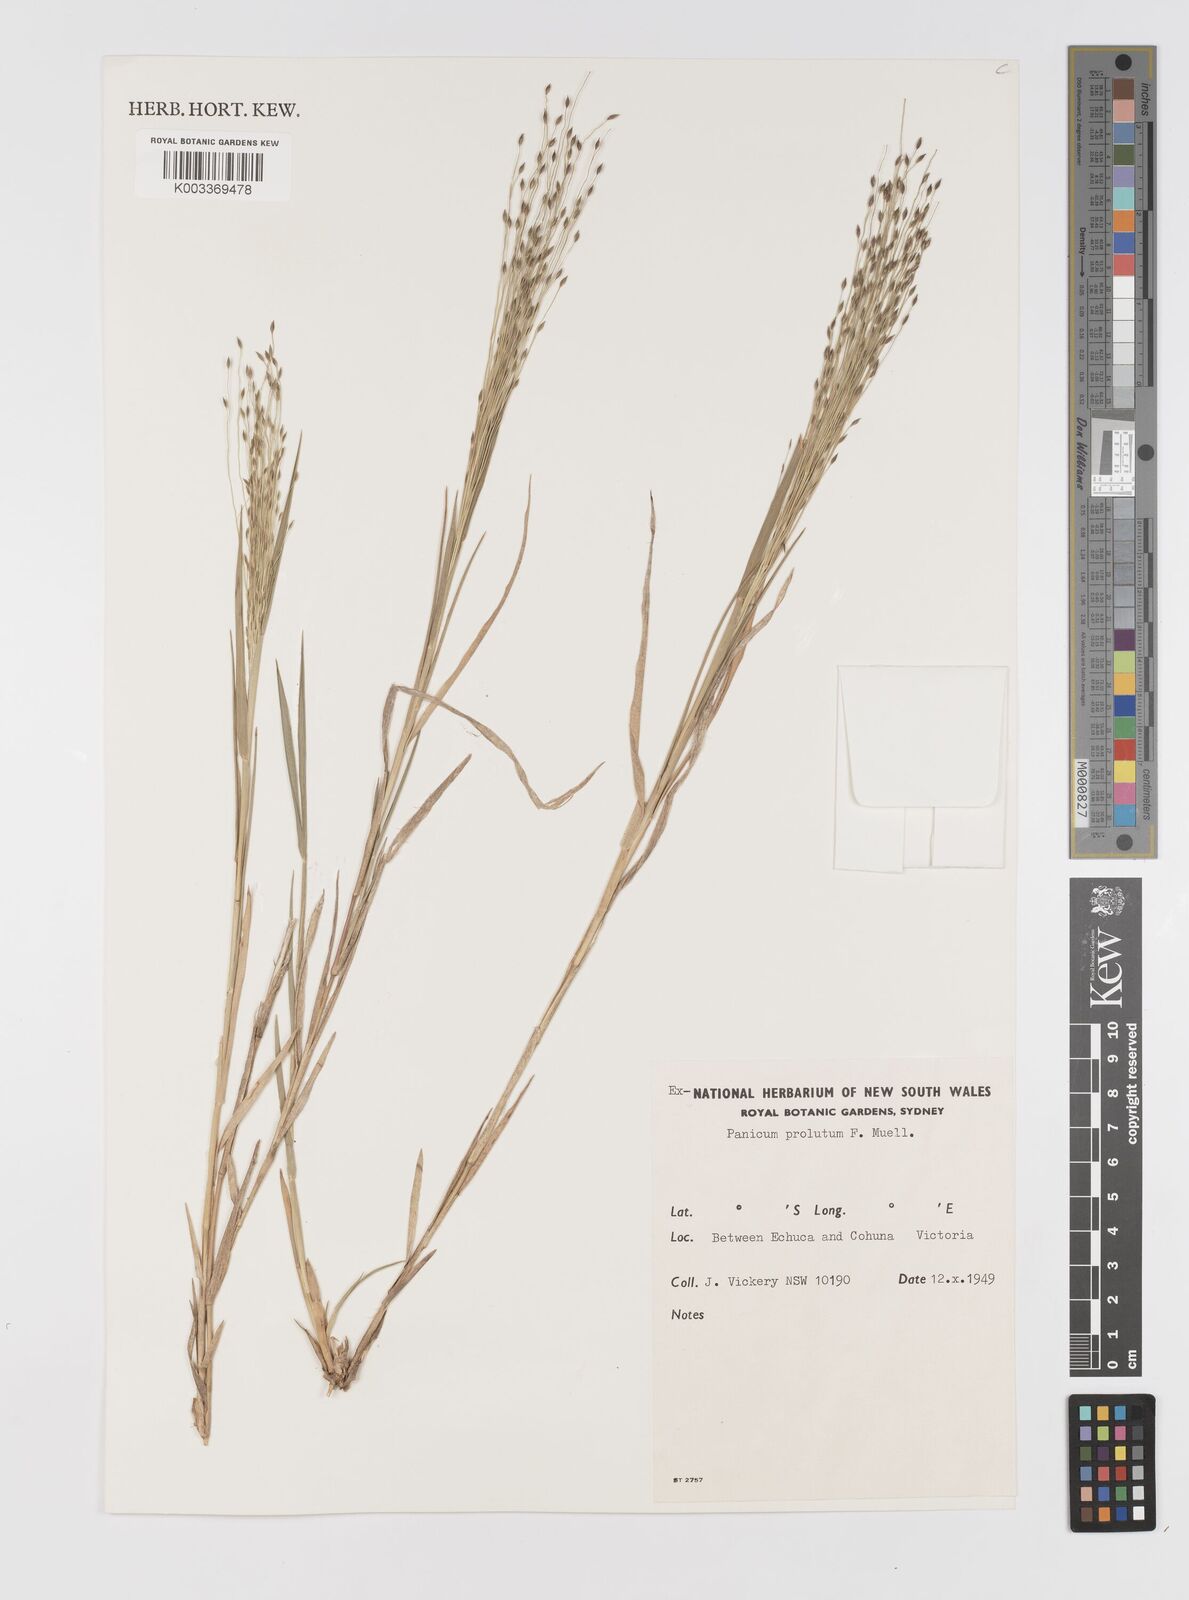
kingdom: Plantae
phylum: Tracheophyta
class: Liliopsida
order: Poales
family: Poaceae
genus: Walwhalleya
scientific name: Walwhalleya proluta
